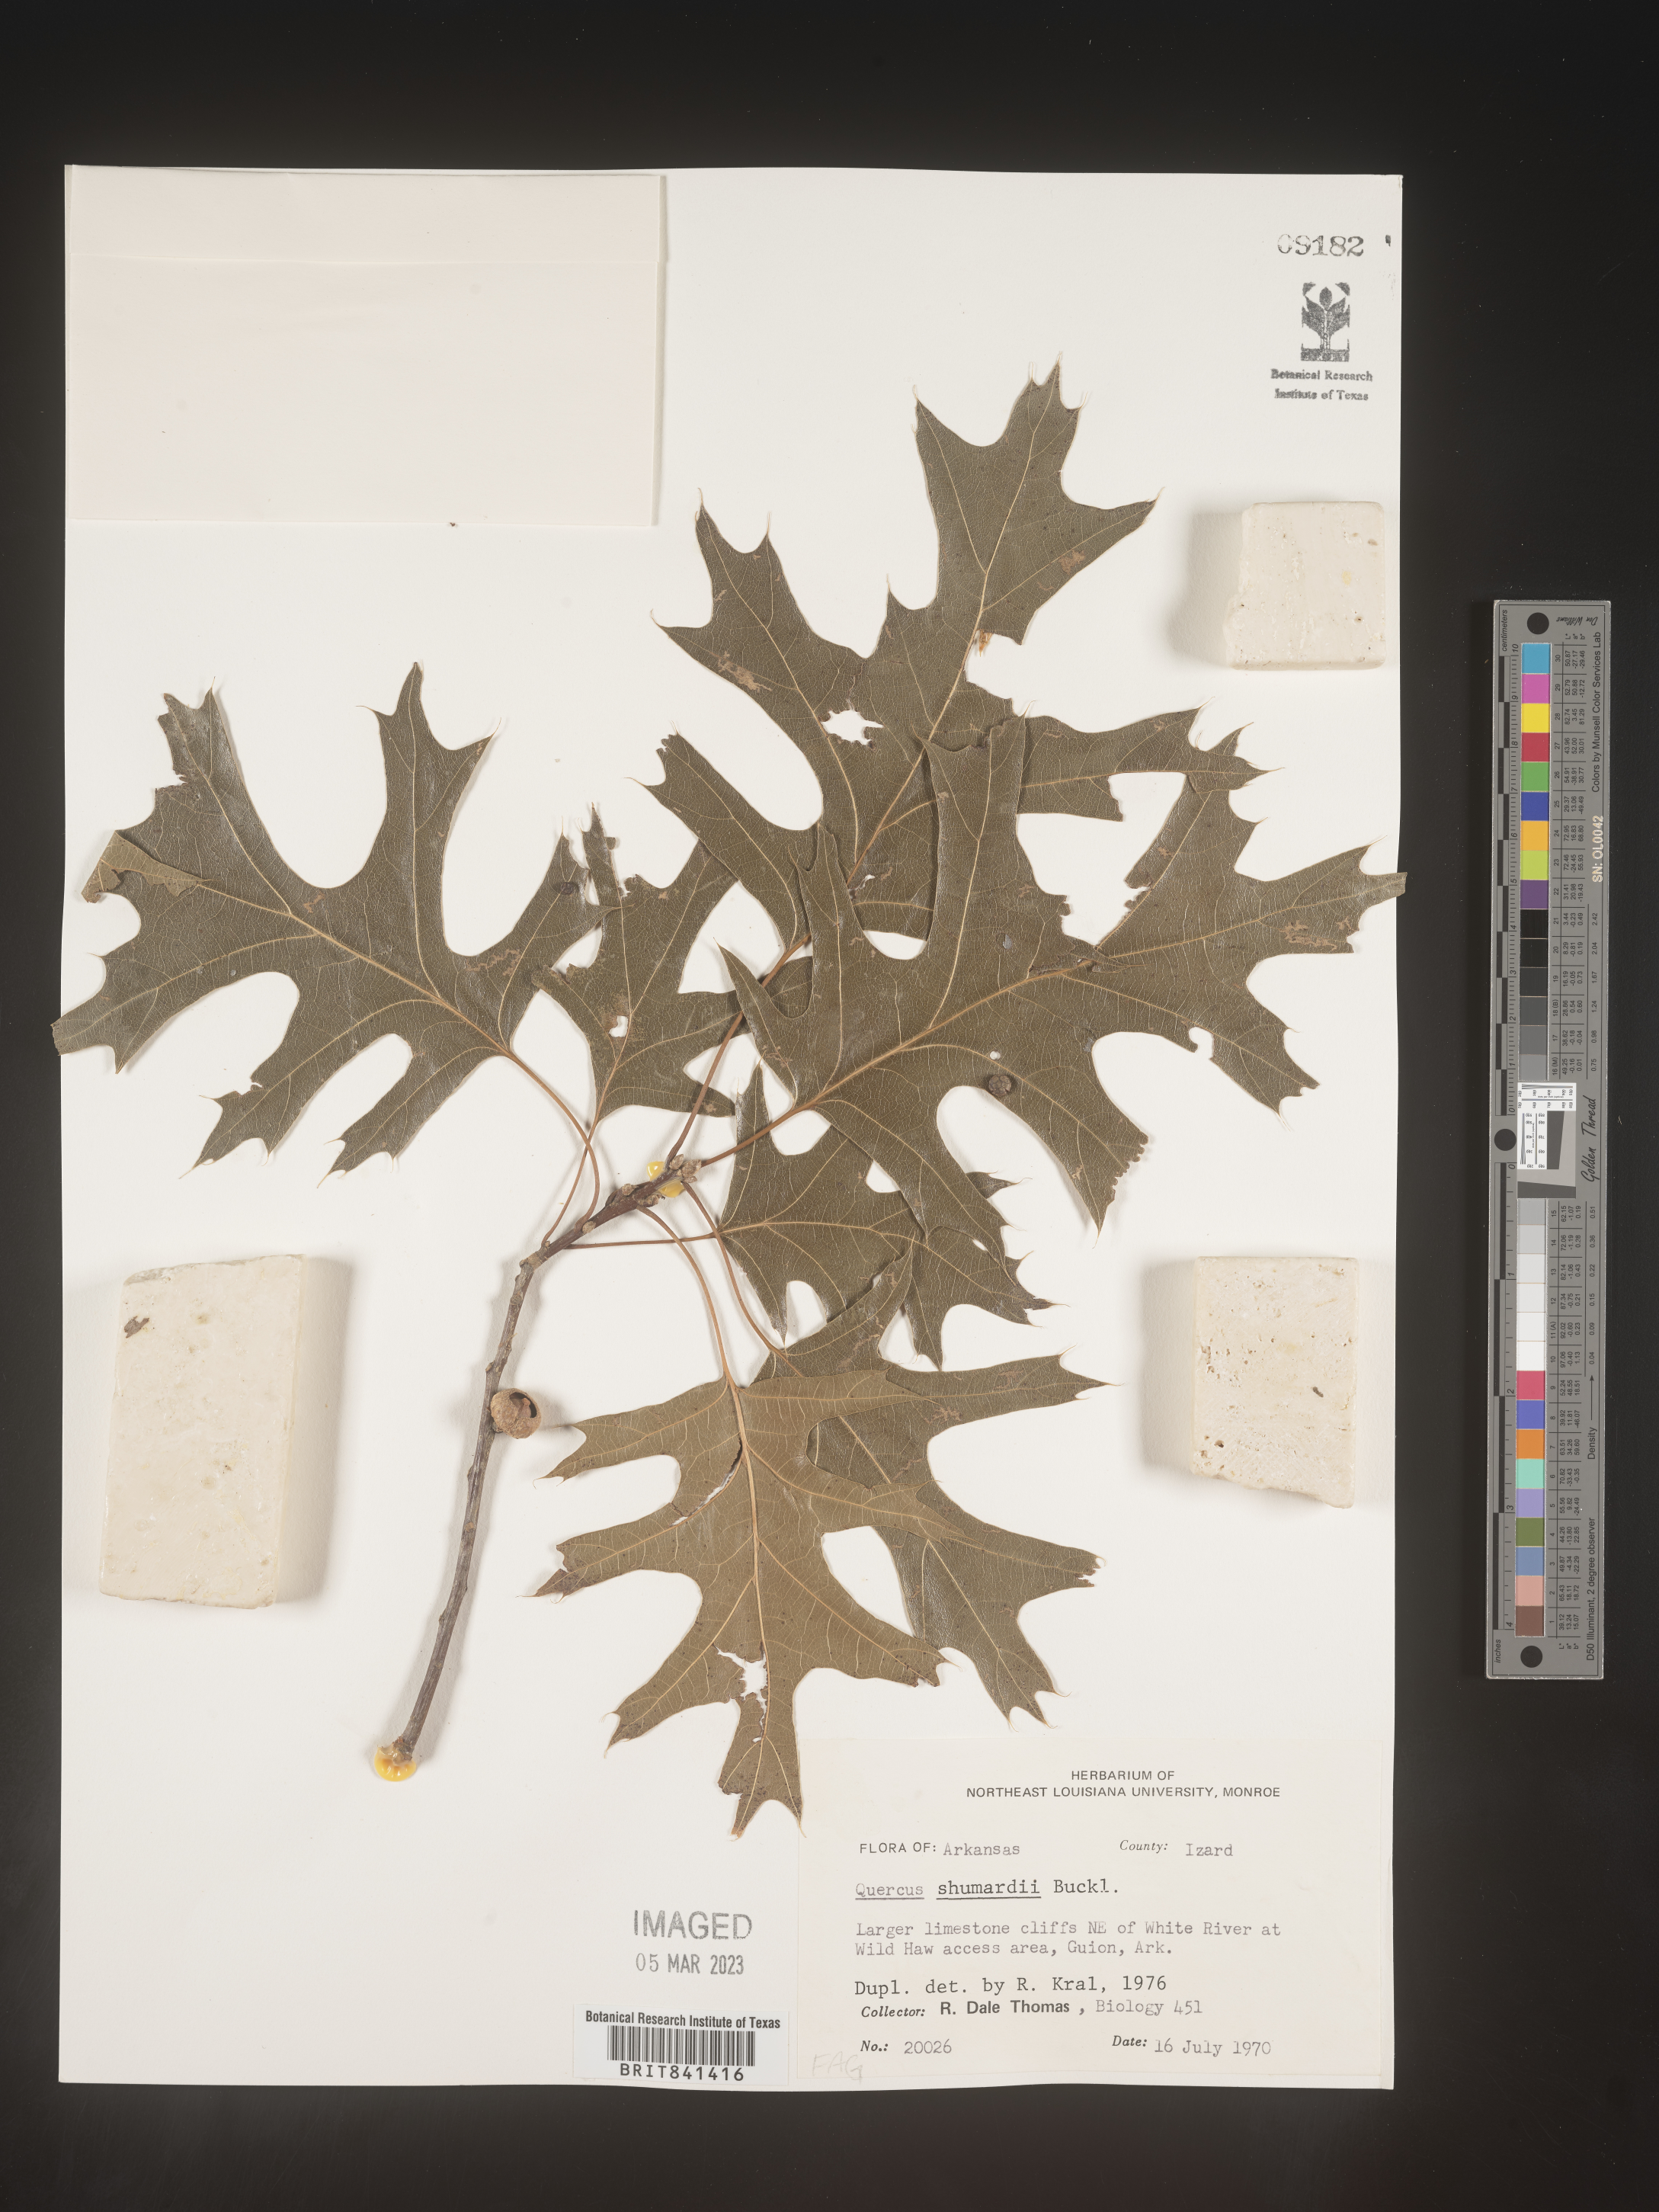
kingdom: Plantae
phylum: Tracheophyta
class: Magnoliopsida
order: Fagales
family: Fagaceae
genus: Quercus
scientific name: Quercus shumardii
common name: Shumard oak
